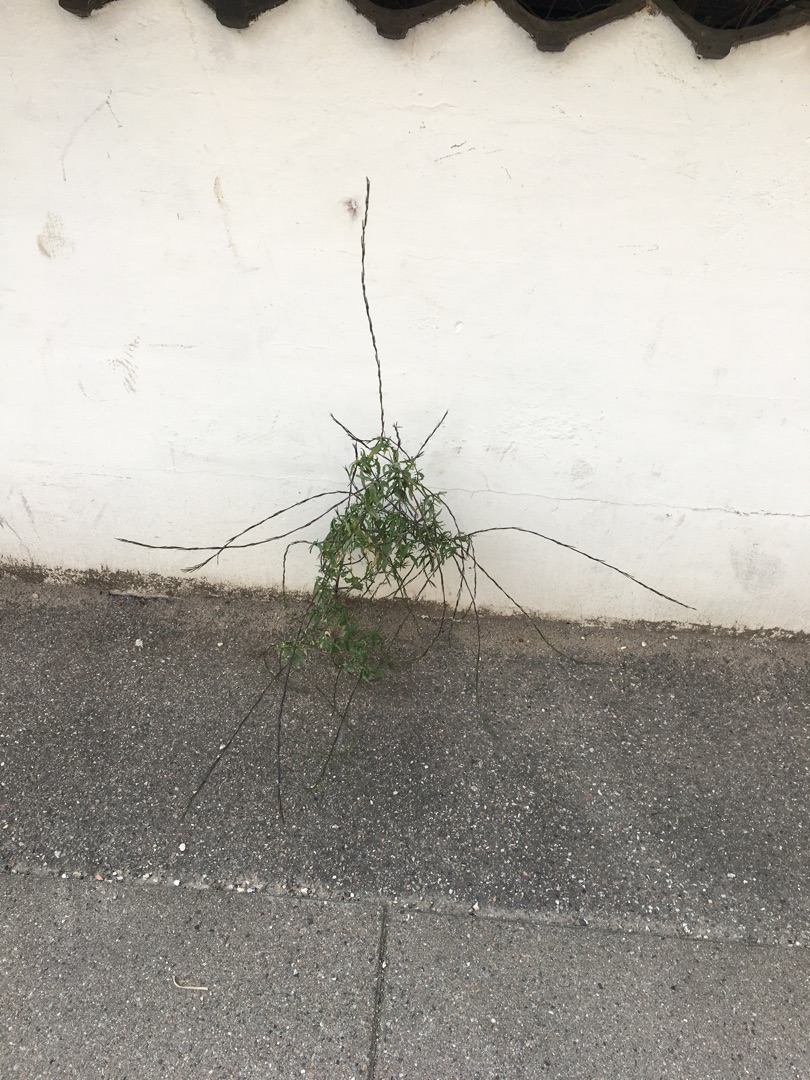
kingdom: Plantae
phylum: Tracheophyta
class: Magnoliopsida
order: Brassicales
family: Brassicaceae
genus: Sisymbrium
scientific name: Sisymbrium officinale
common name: Rank vejsennep
